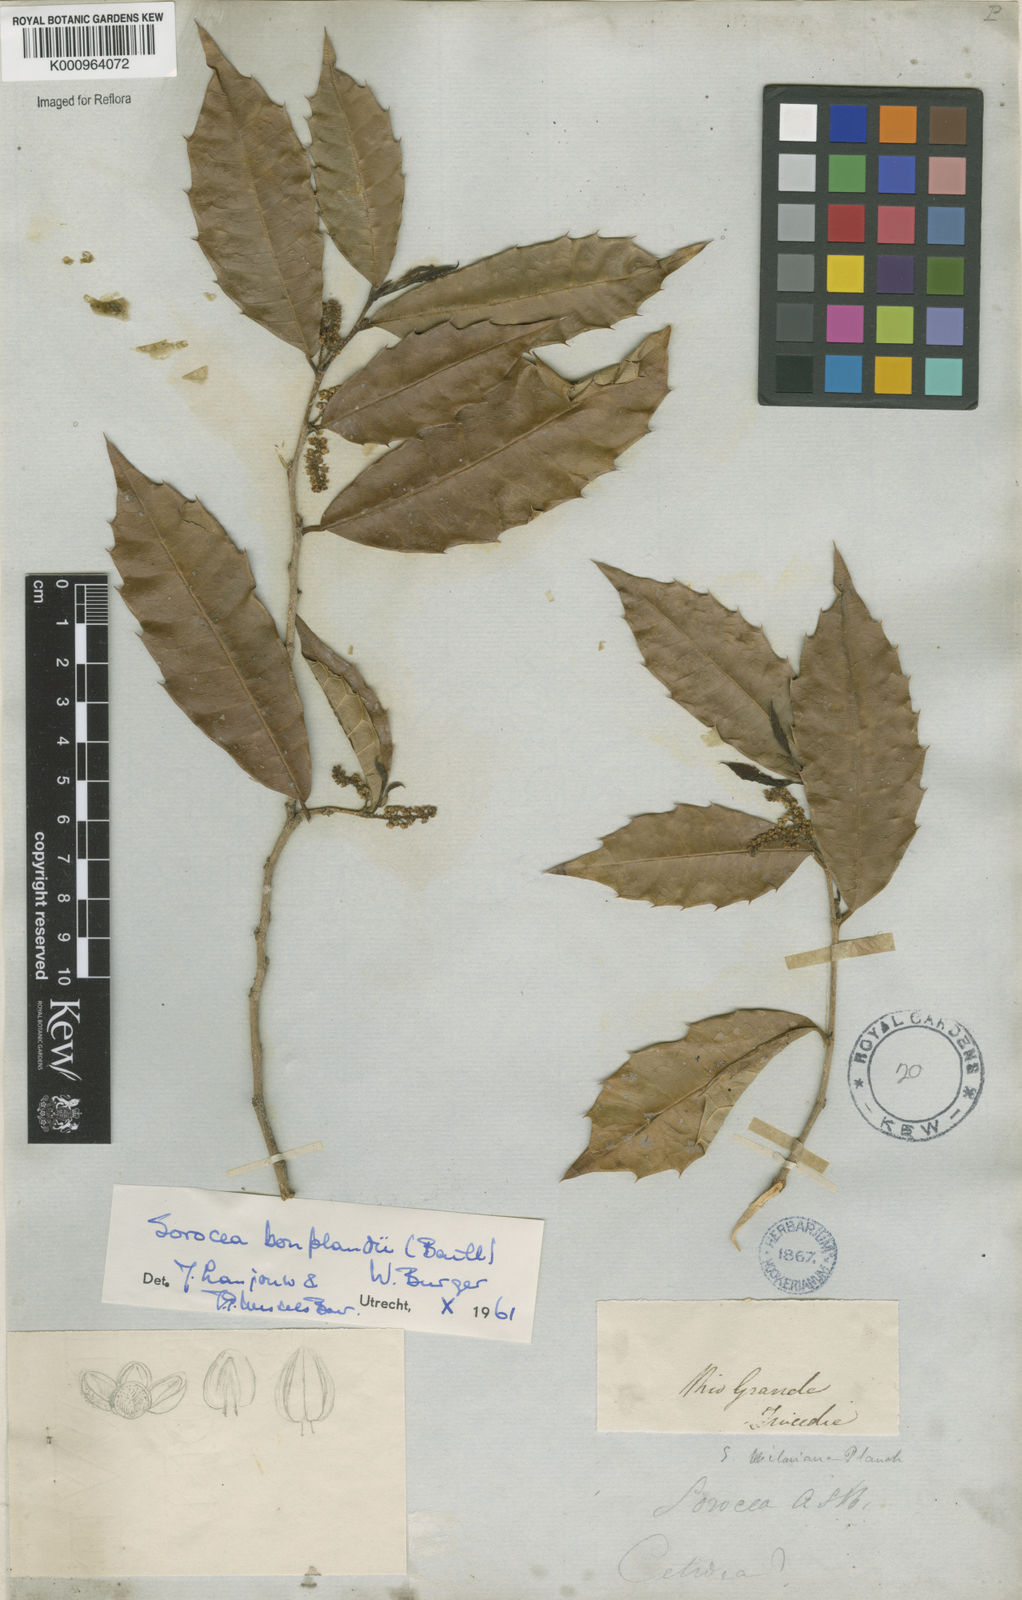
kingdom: Plantae
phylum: Tracheophyta
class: Magnoliopsida
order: Rosales
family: Moraceae
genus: Sorocea
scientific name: Sorocea
